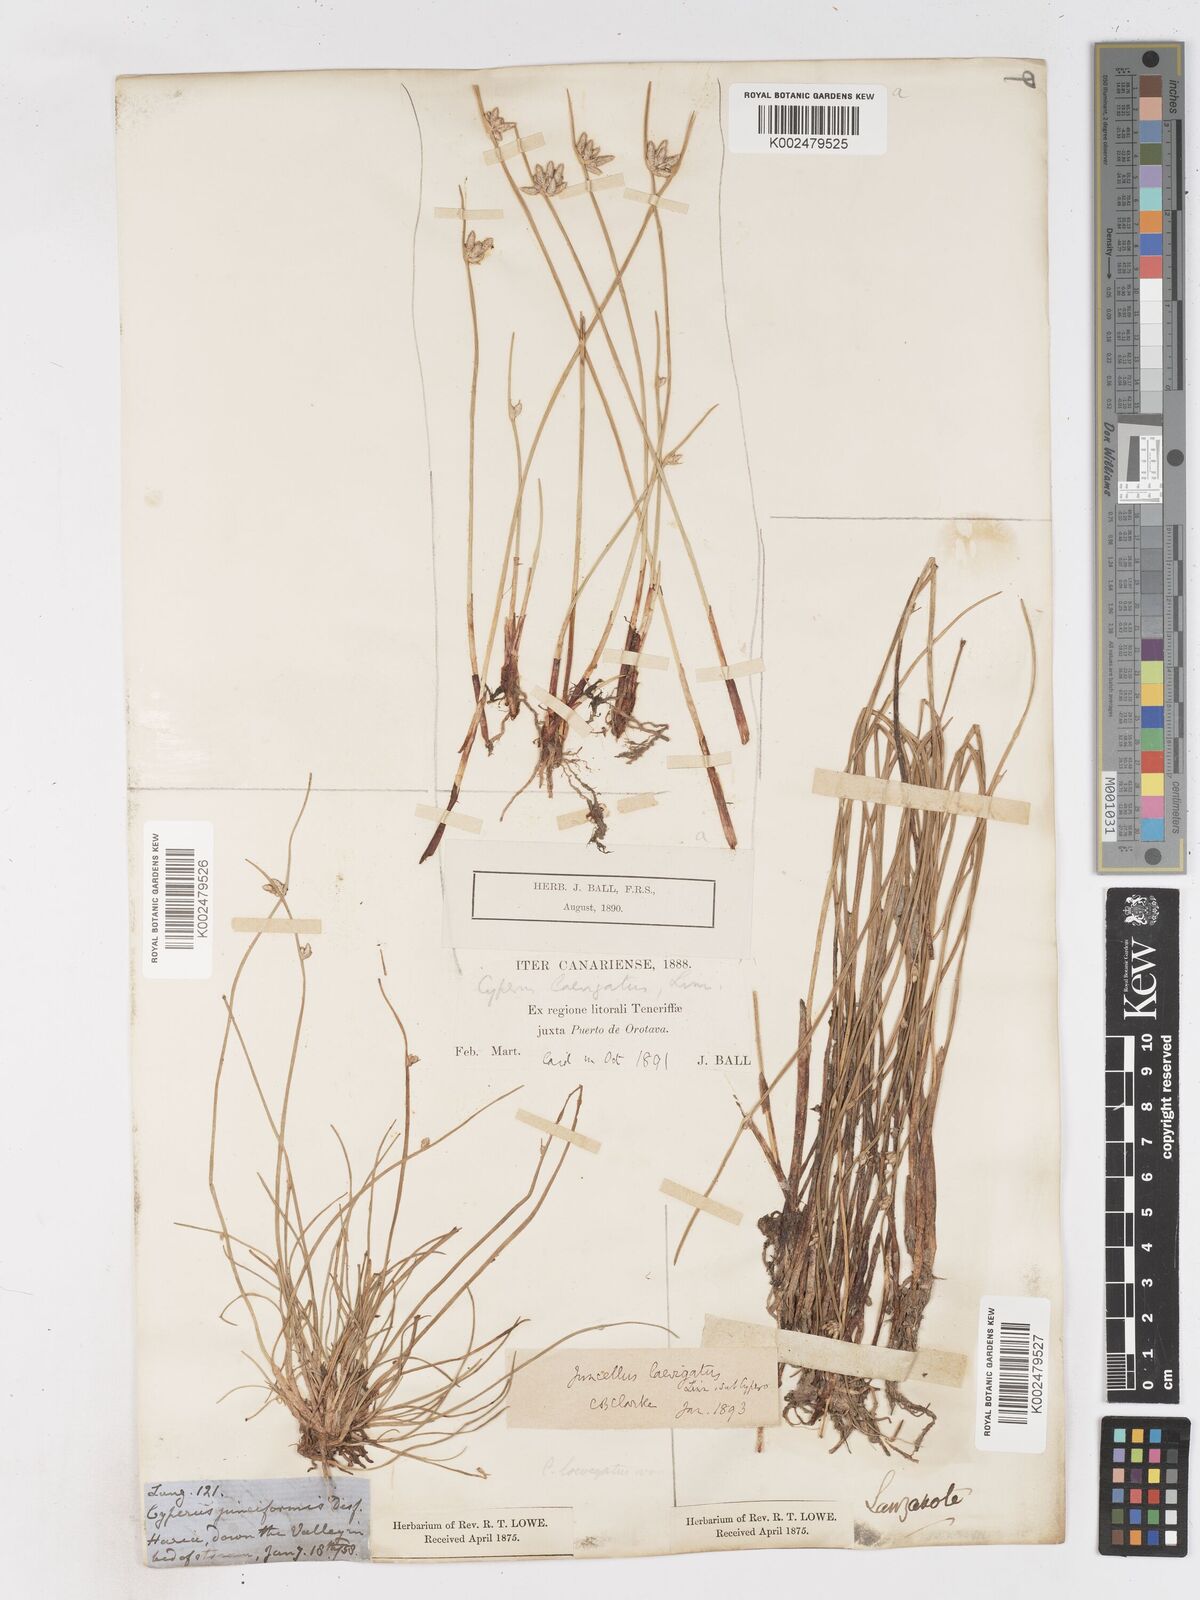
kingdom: Plantae
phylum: Tracheophyta
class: Liliopsida
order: Poales
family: Cyperaceae
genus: Cyperus
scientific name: Cyperus laevigatus
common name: Smooth flat sedge
